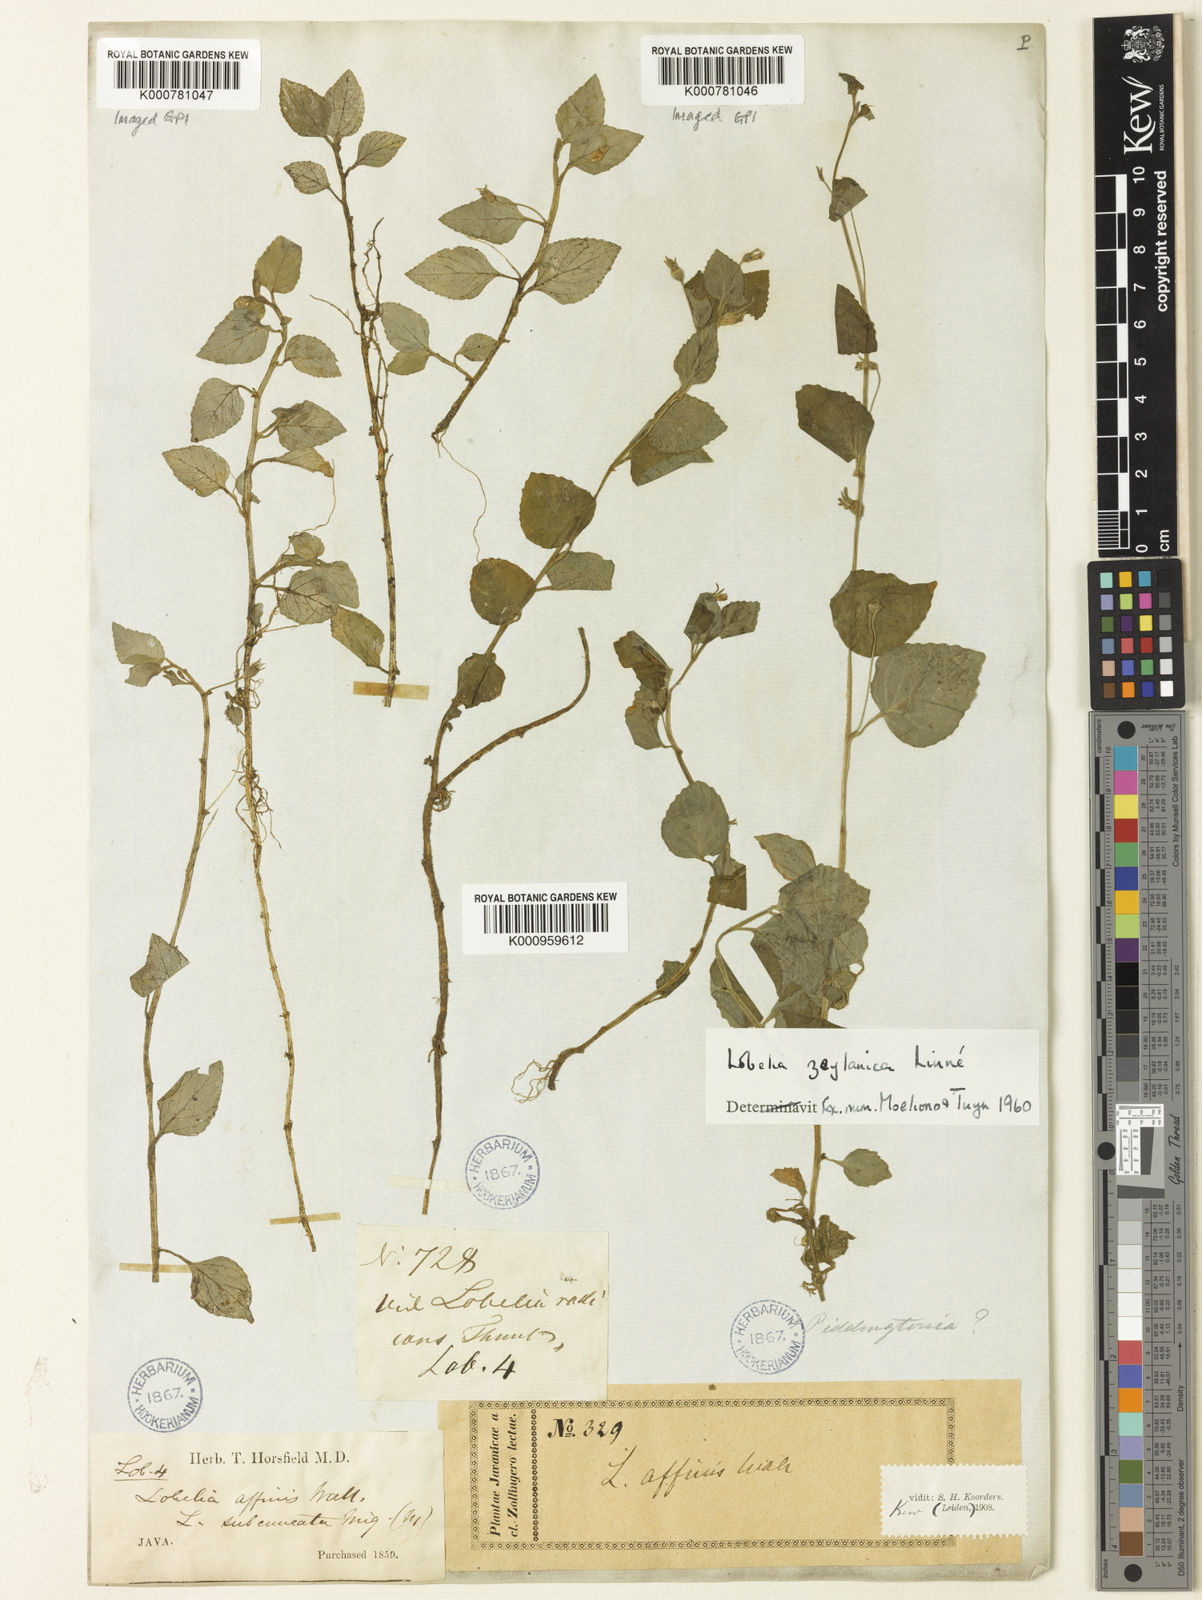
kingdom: Plantae
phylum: Tracheophyta
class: Magnoliopsida
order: Asterales
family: Campanulaceae
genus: Lobelia
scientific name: Lobelia zeylanica
